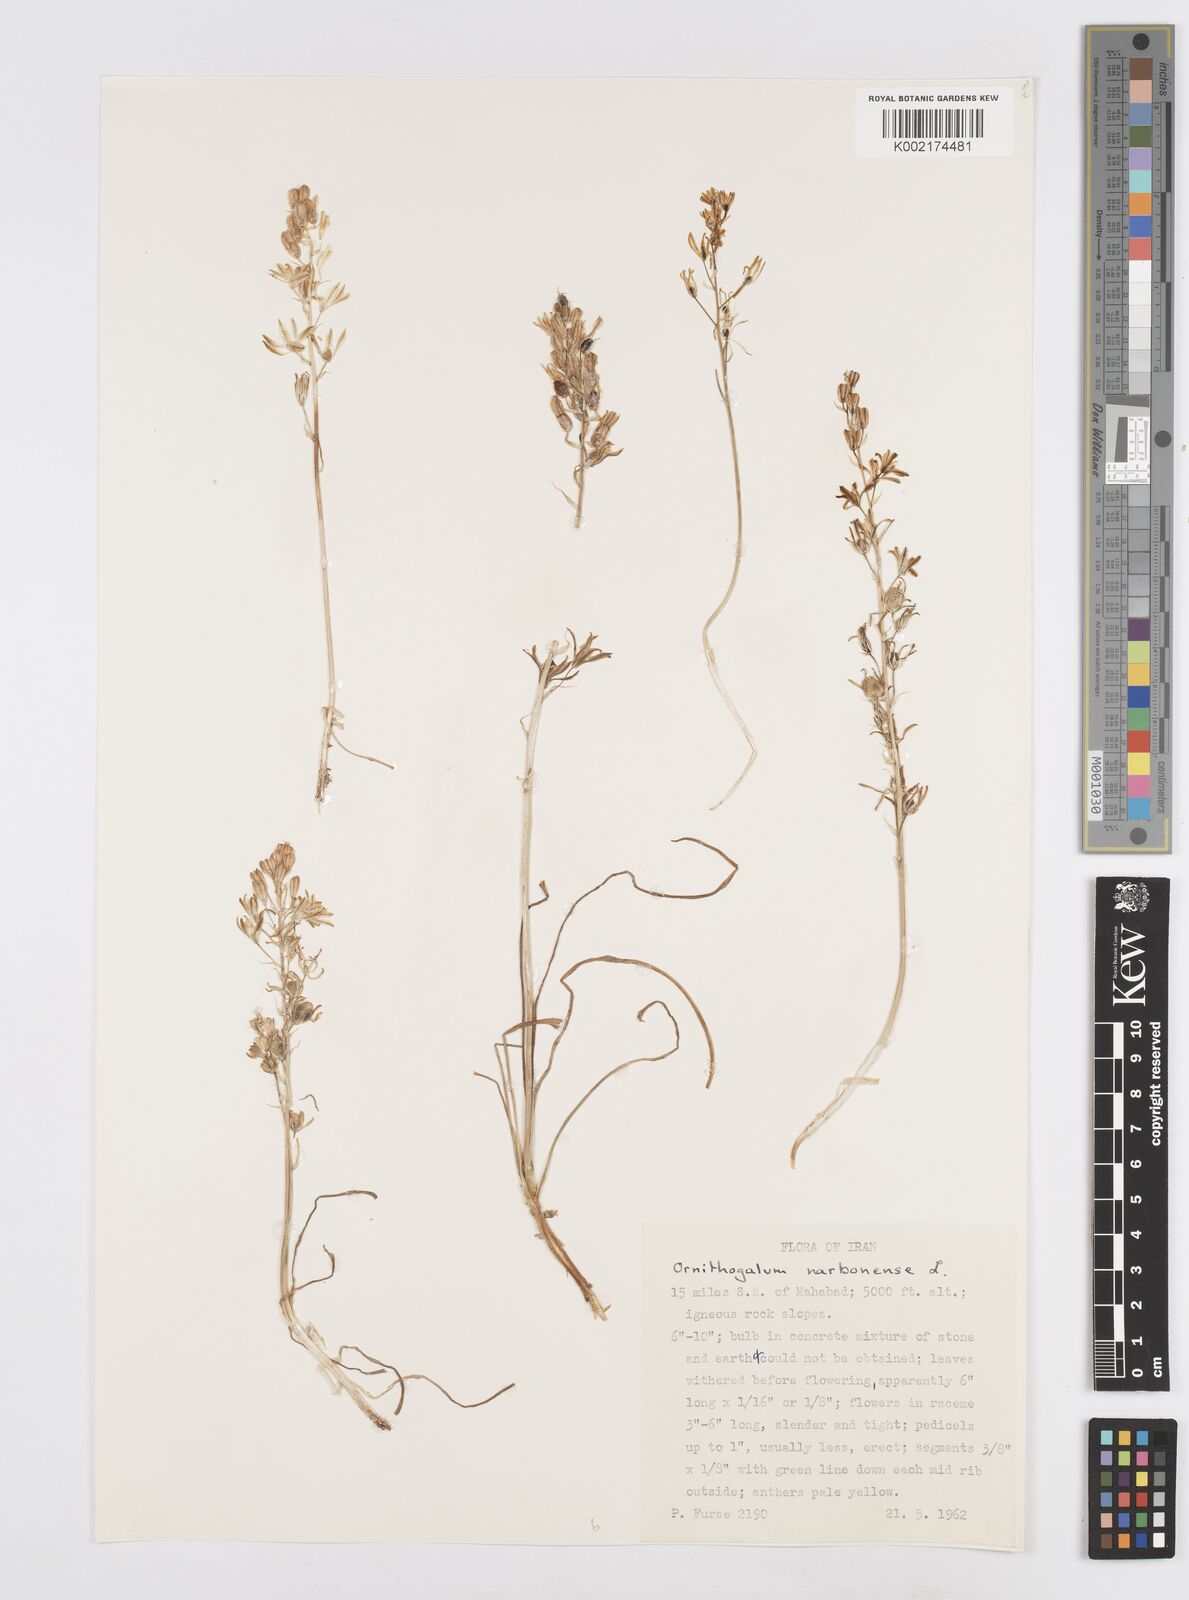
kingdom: Plantae
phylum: Tracheophyta
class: Liliopsida
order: Asparagales
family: Asparagaceae
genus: Ornithogalum
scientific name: Ornithogalum narbonense
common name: Bath-asparagus
